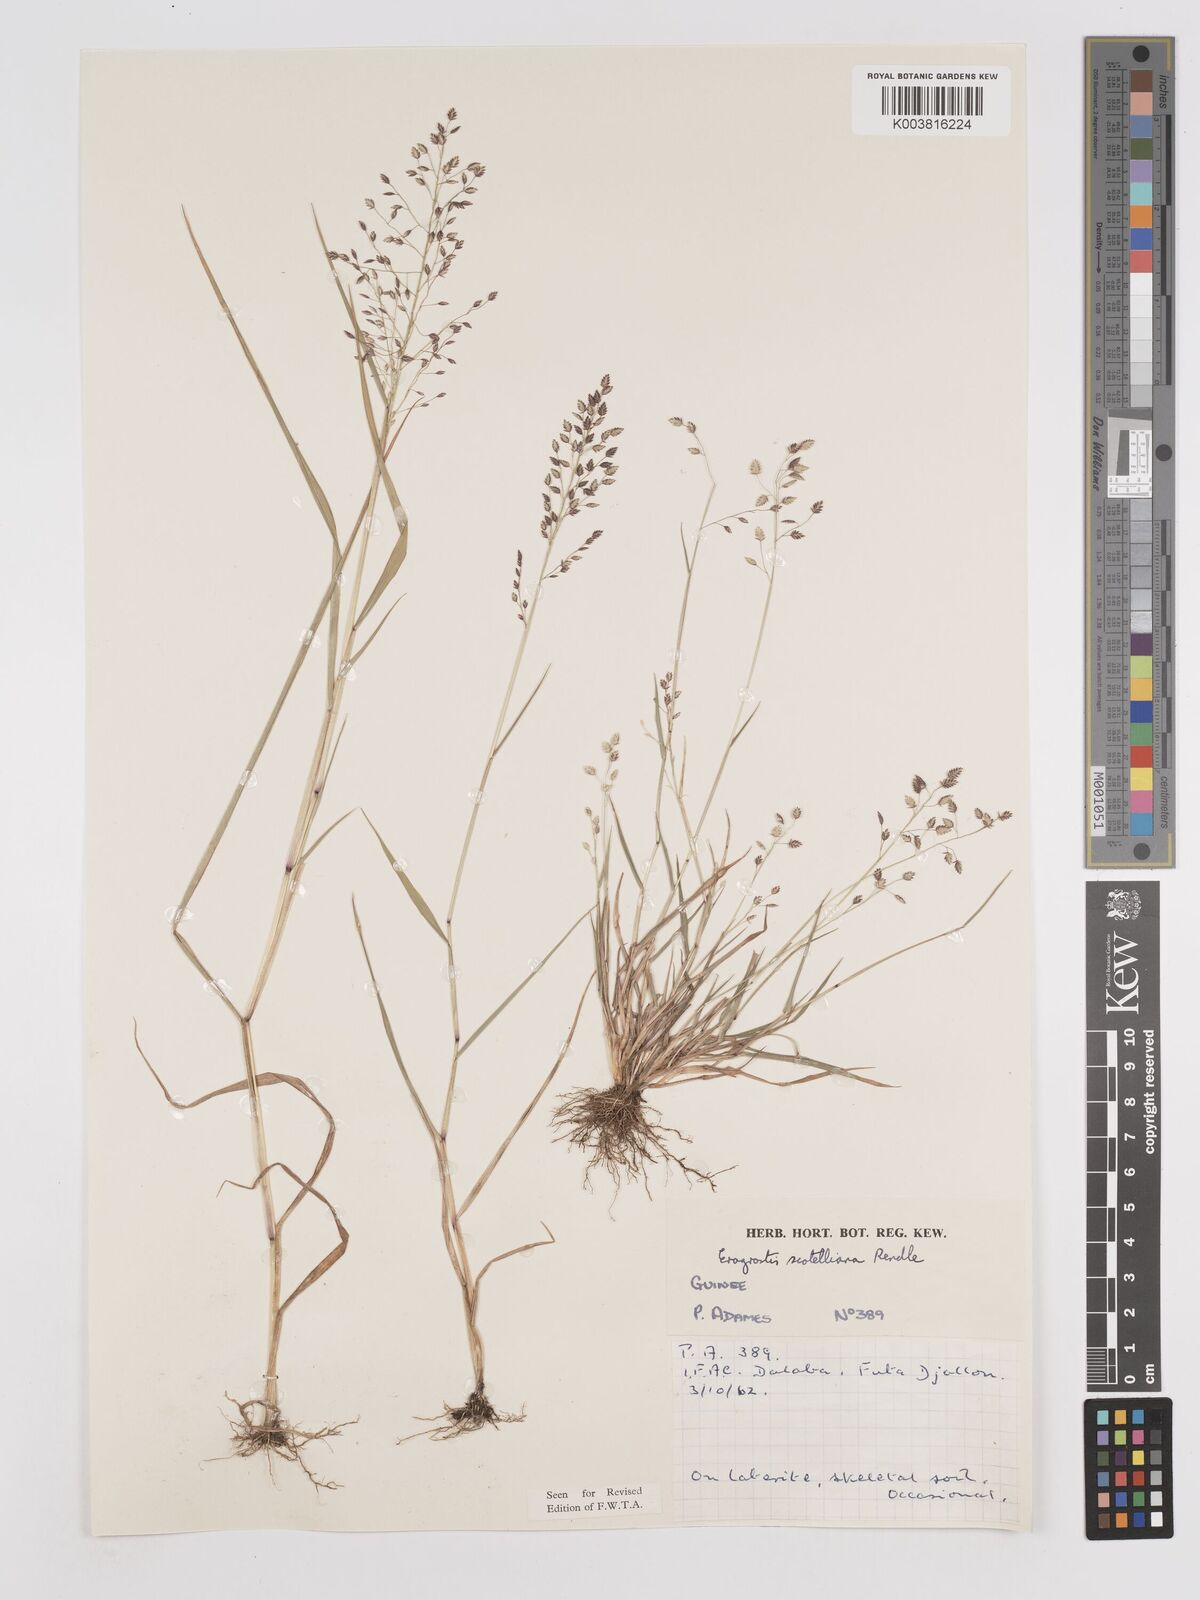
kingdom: Plantae
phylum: Tracheophyta
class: Liliopsida
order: Poales
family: Poaceae
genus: Eragrostis
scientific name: Eragrostis scotelliana
